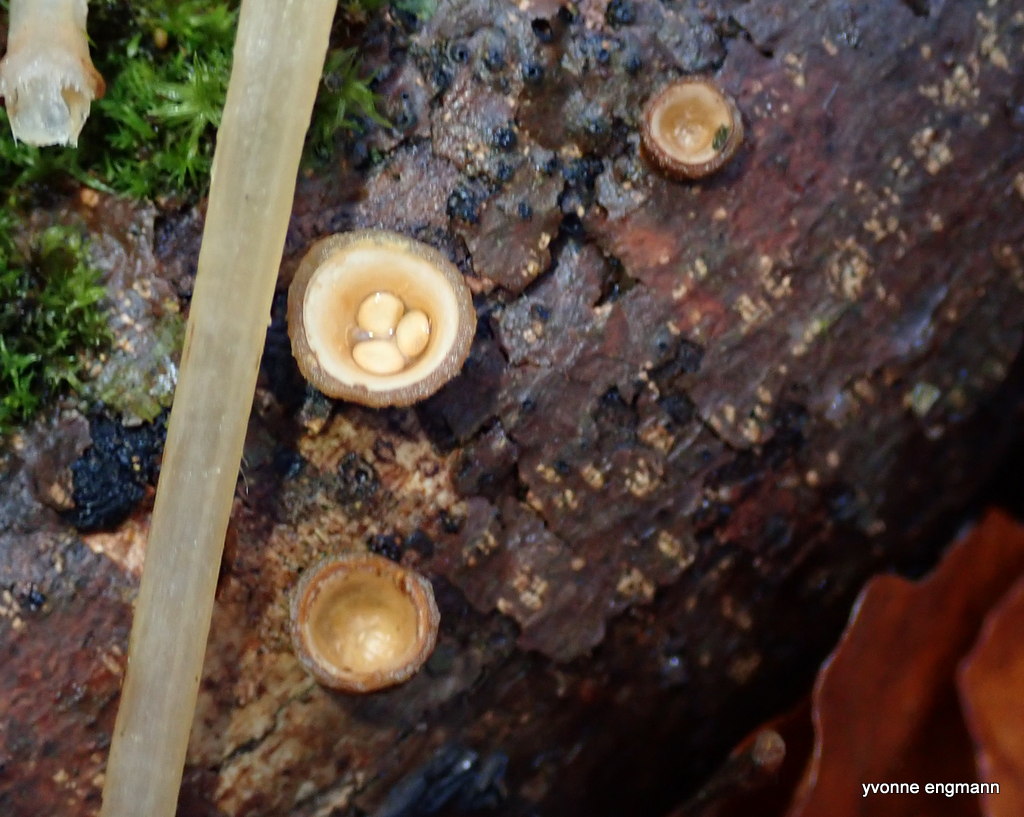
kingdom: Fungi
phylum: Basidiomycota
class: Agaricomycetes
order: Agaricales
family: Nidulariaceae
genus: Crucibulum
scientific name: Crucibulum crucibuliforme
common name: krukkesvamp
